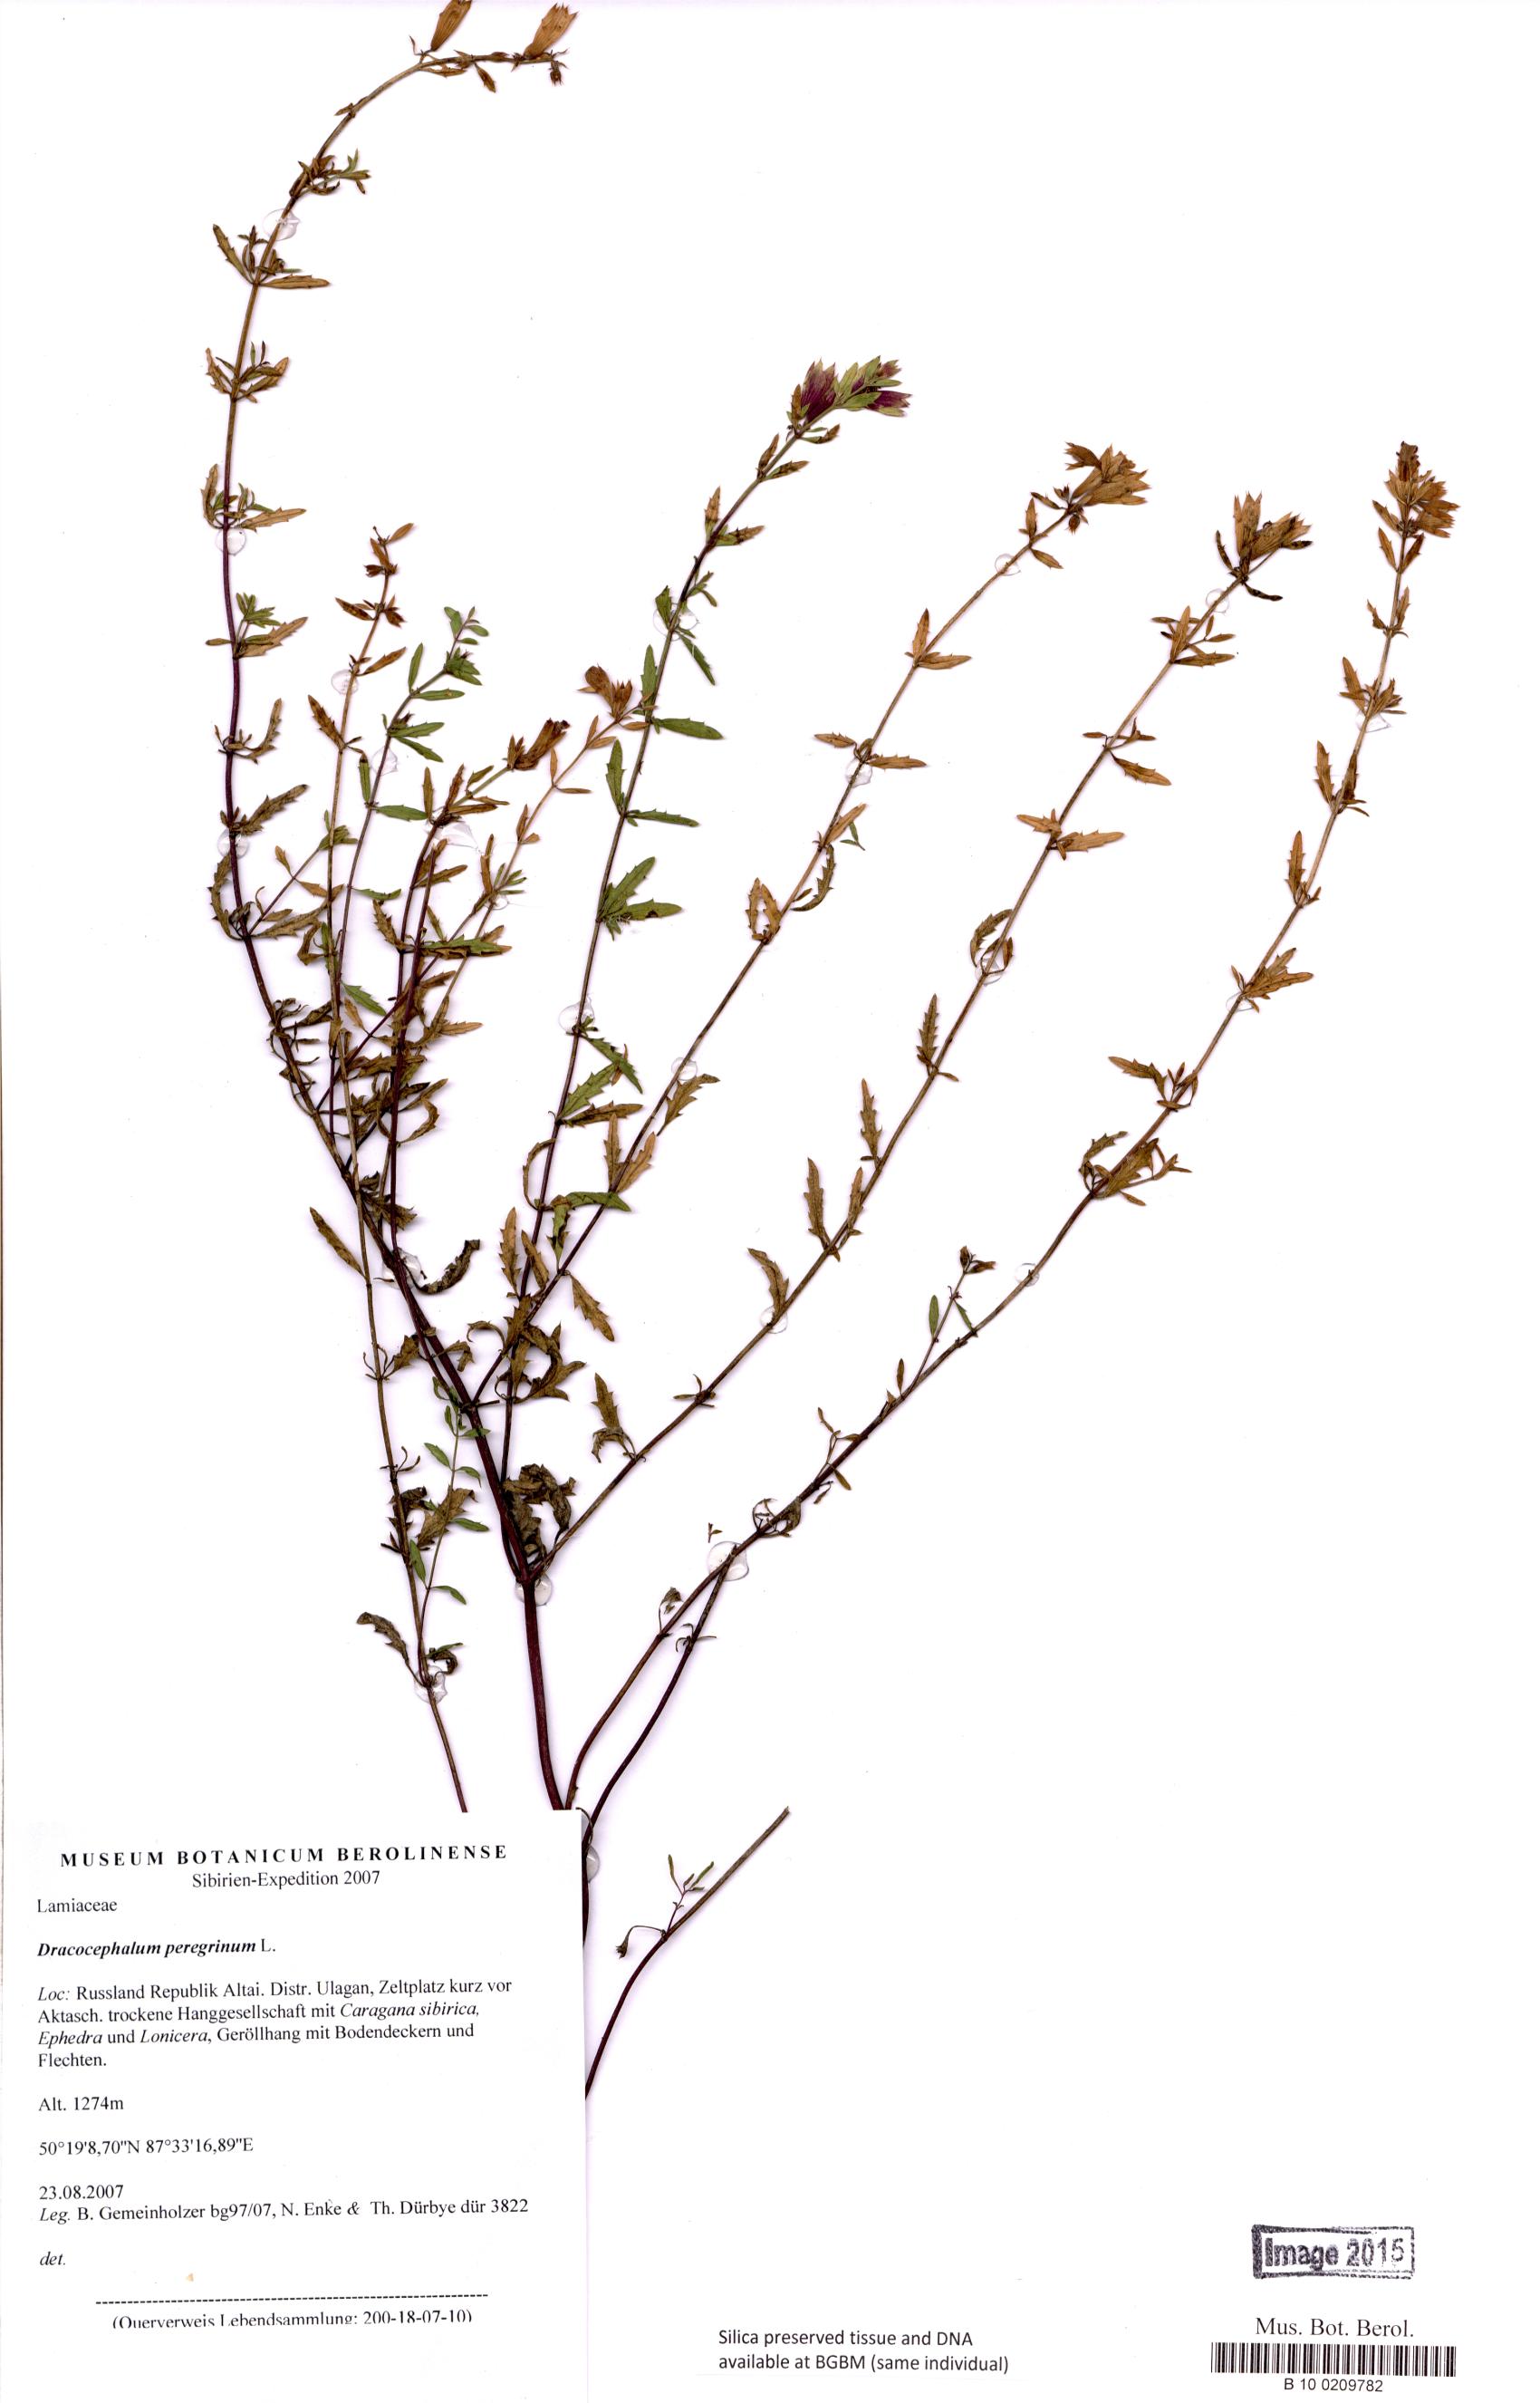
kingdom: Plantae
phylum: Tracheophyta
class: Magnoliopsida
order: Lamiales
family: Lamiaceae
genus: Dracocephalum
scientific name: Dracocephalum peregrinum
